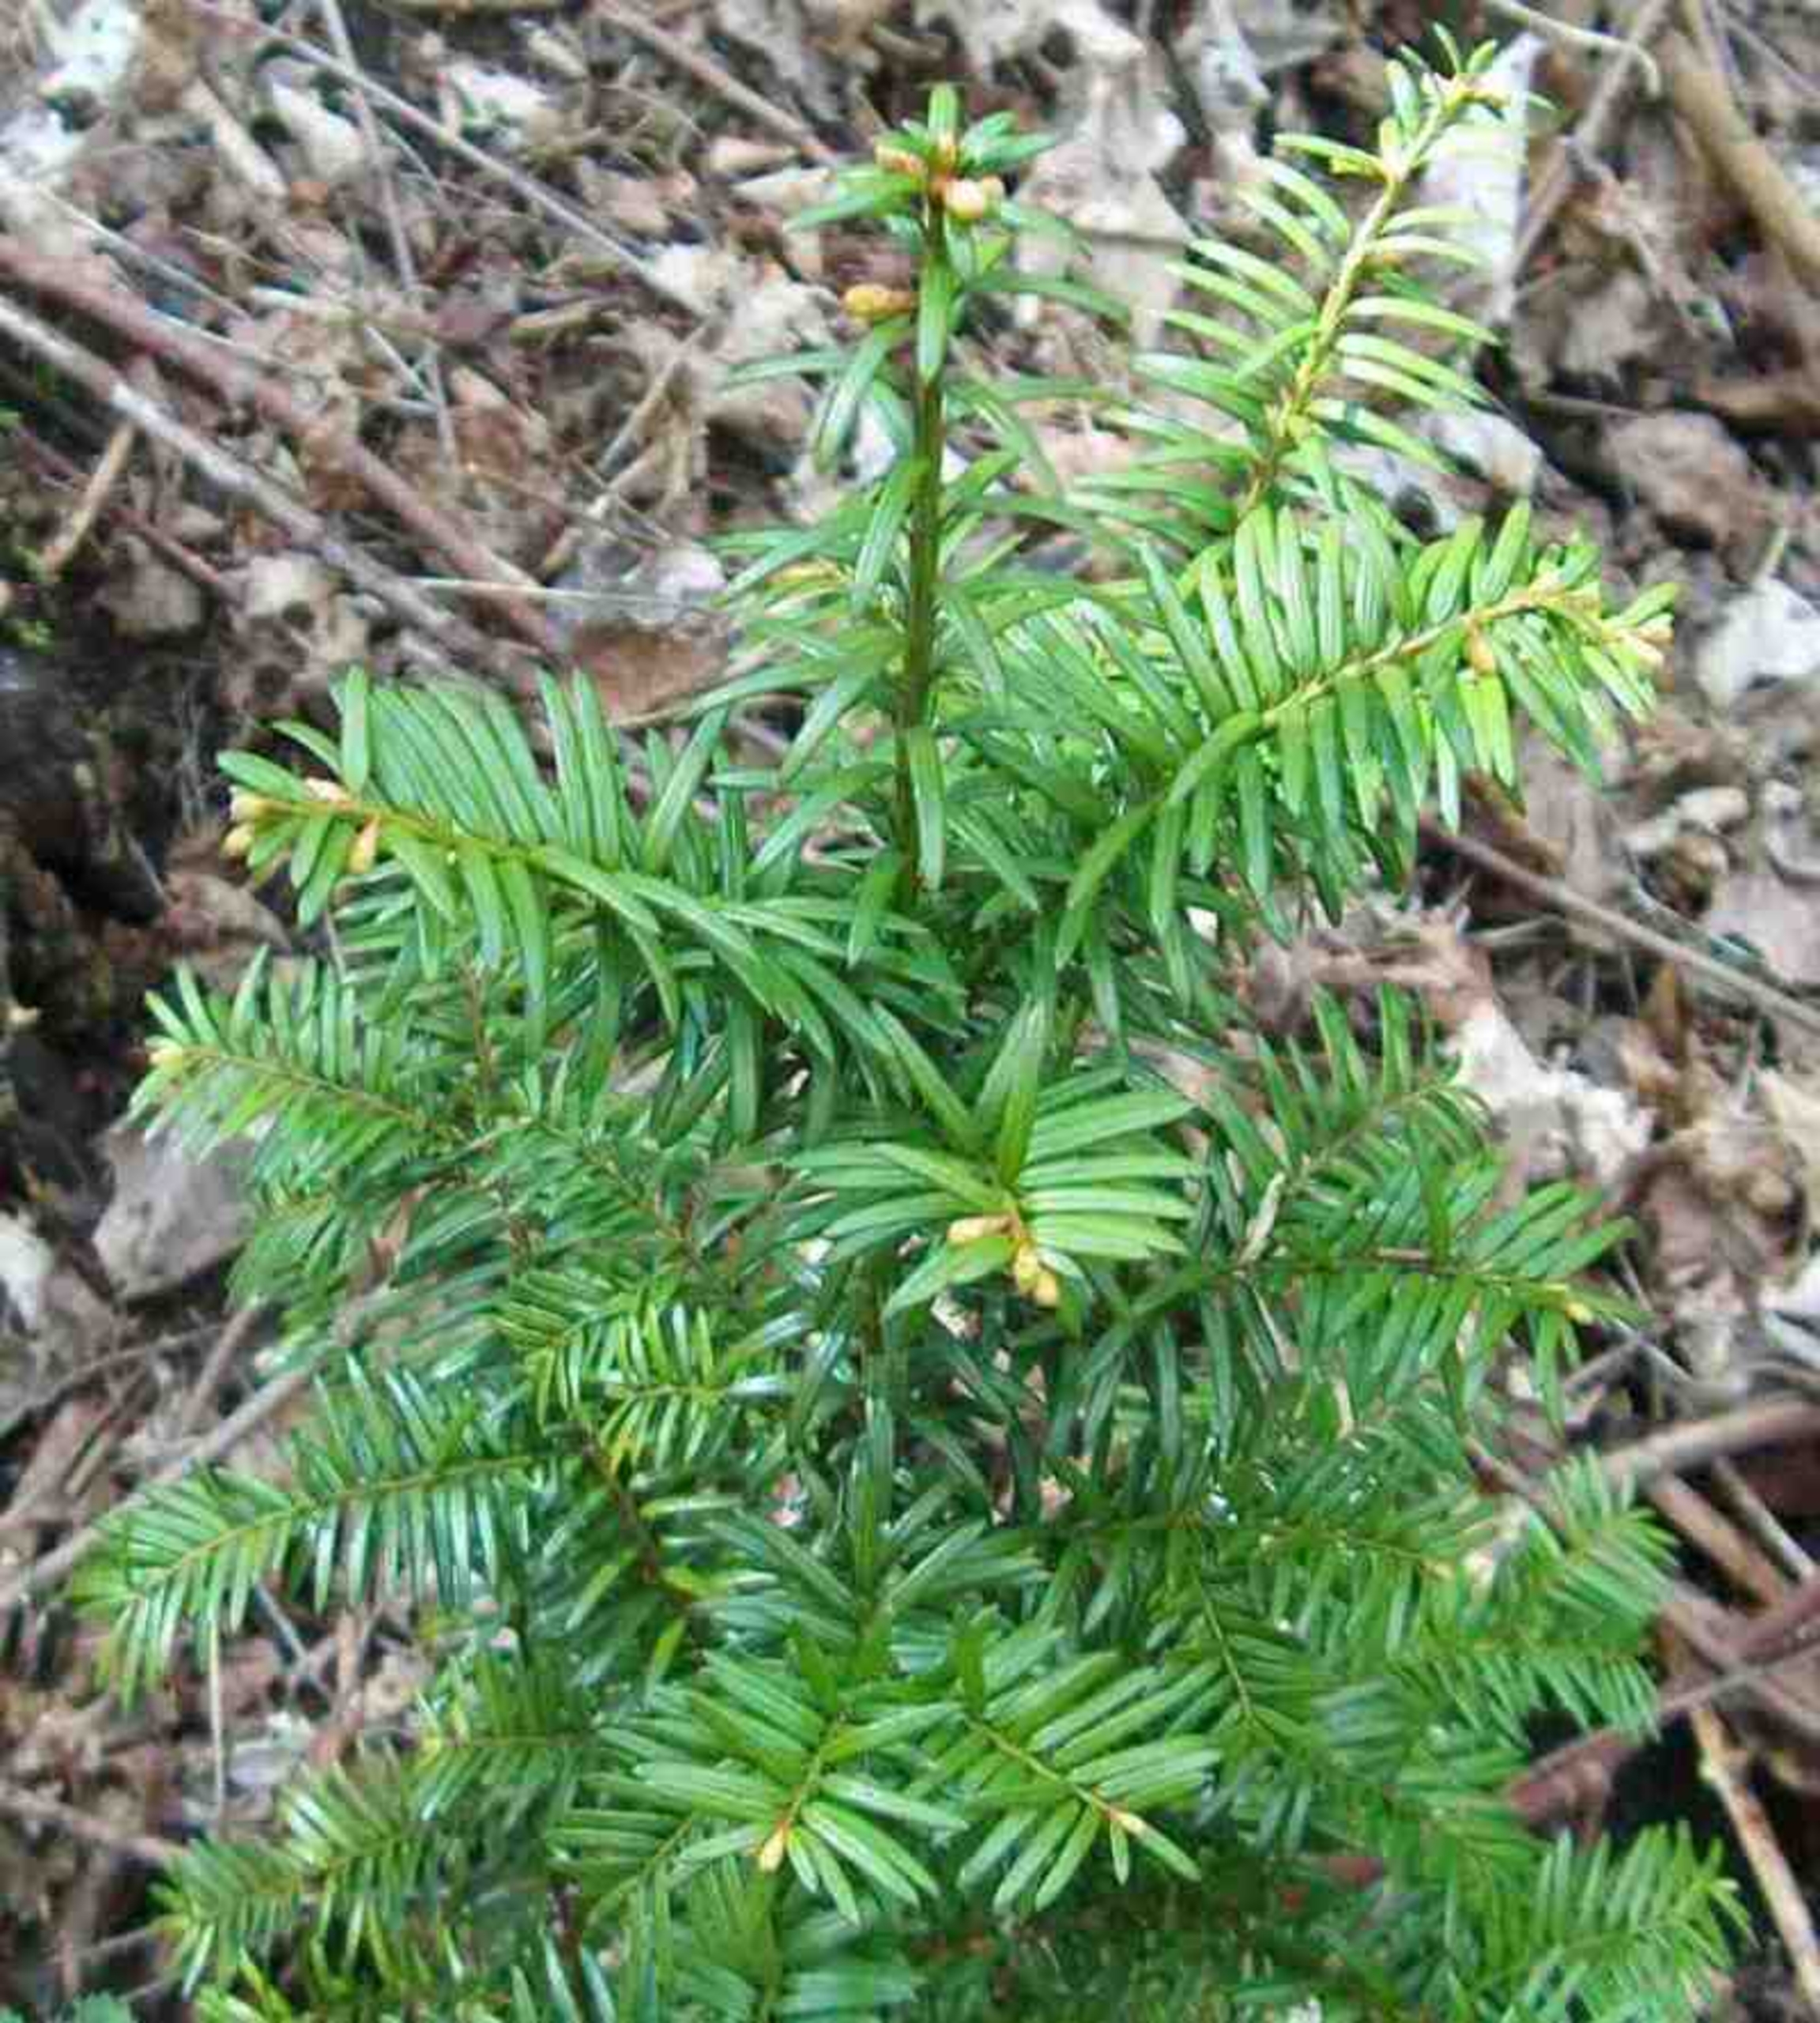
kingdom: Plantae
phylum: Tracheophyta
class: Pinopsida
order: Pinales
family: Taxaceae
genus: Taxus
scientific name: Taxus baccata
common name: Almindelig taks
